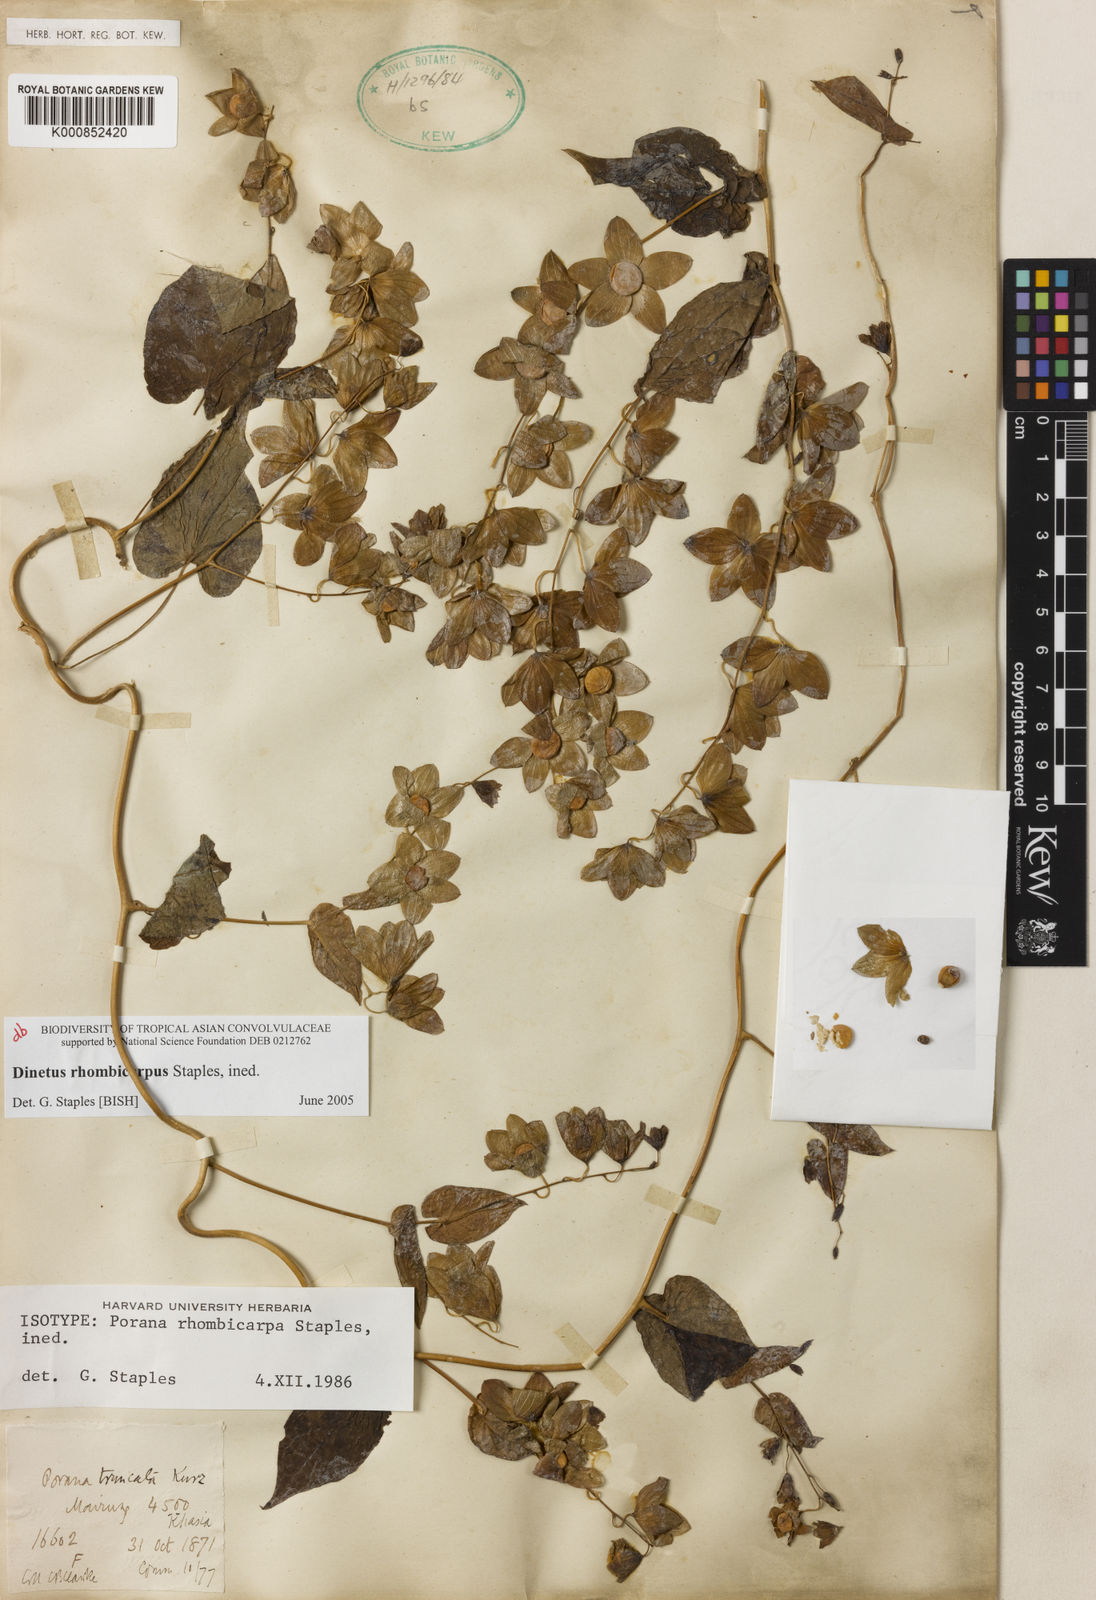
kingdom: Plantae
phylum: Tracheophyta
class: Magnoliopsida
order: Solanales
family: Convolvulaceae
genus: Porana
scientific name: Porana
